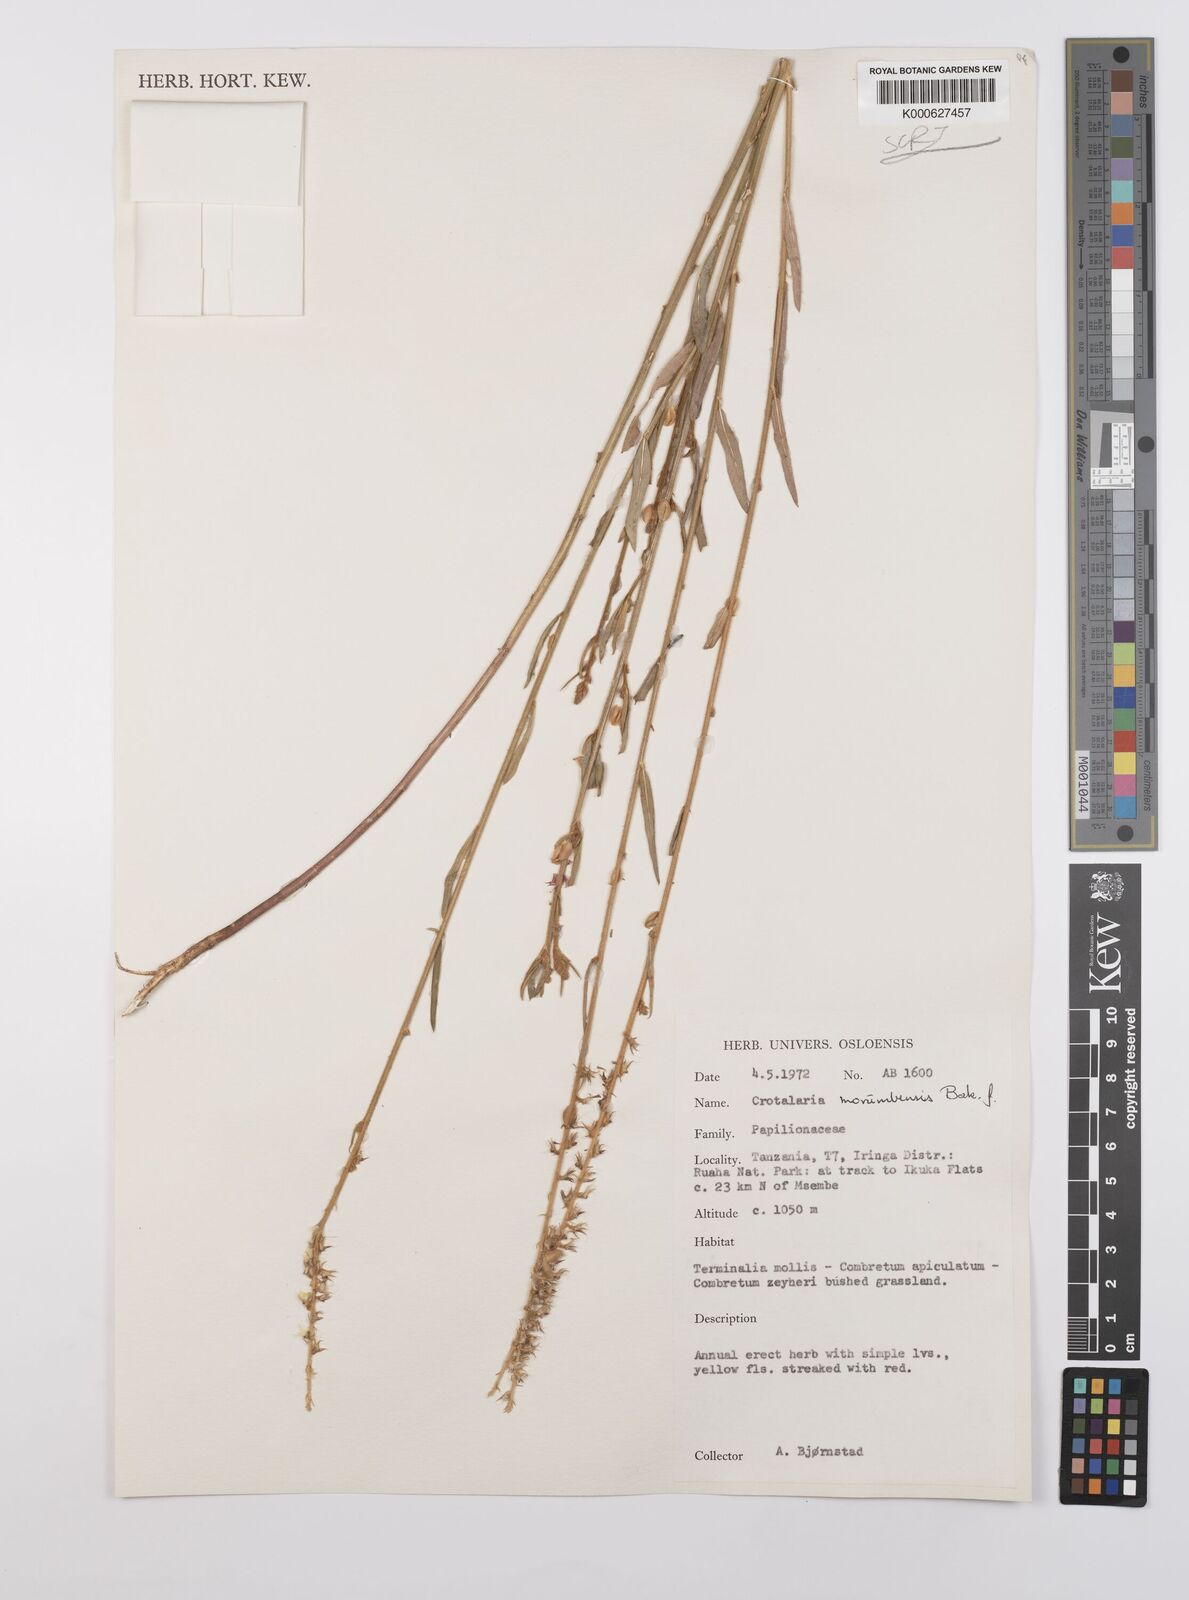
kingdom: Plantae
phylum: Tracheophyta
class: Magnoliopsida
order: Fabales
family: Fabaceae
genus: Crotalaria
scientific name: Crotalaria morumbensis
